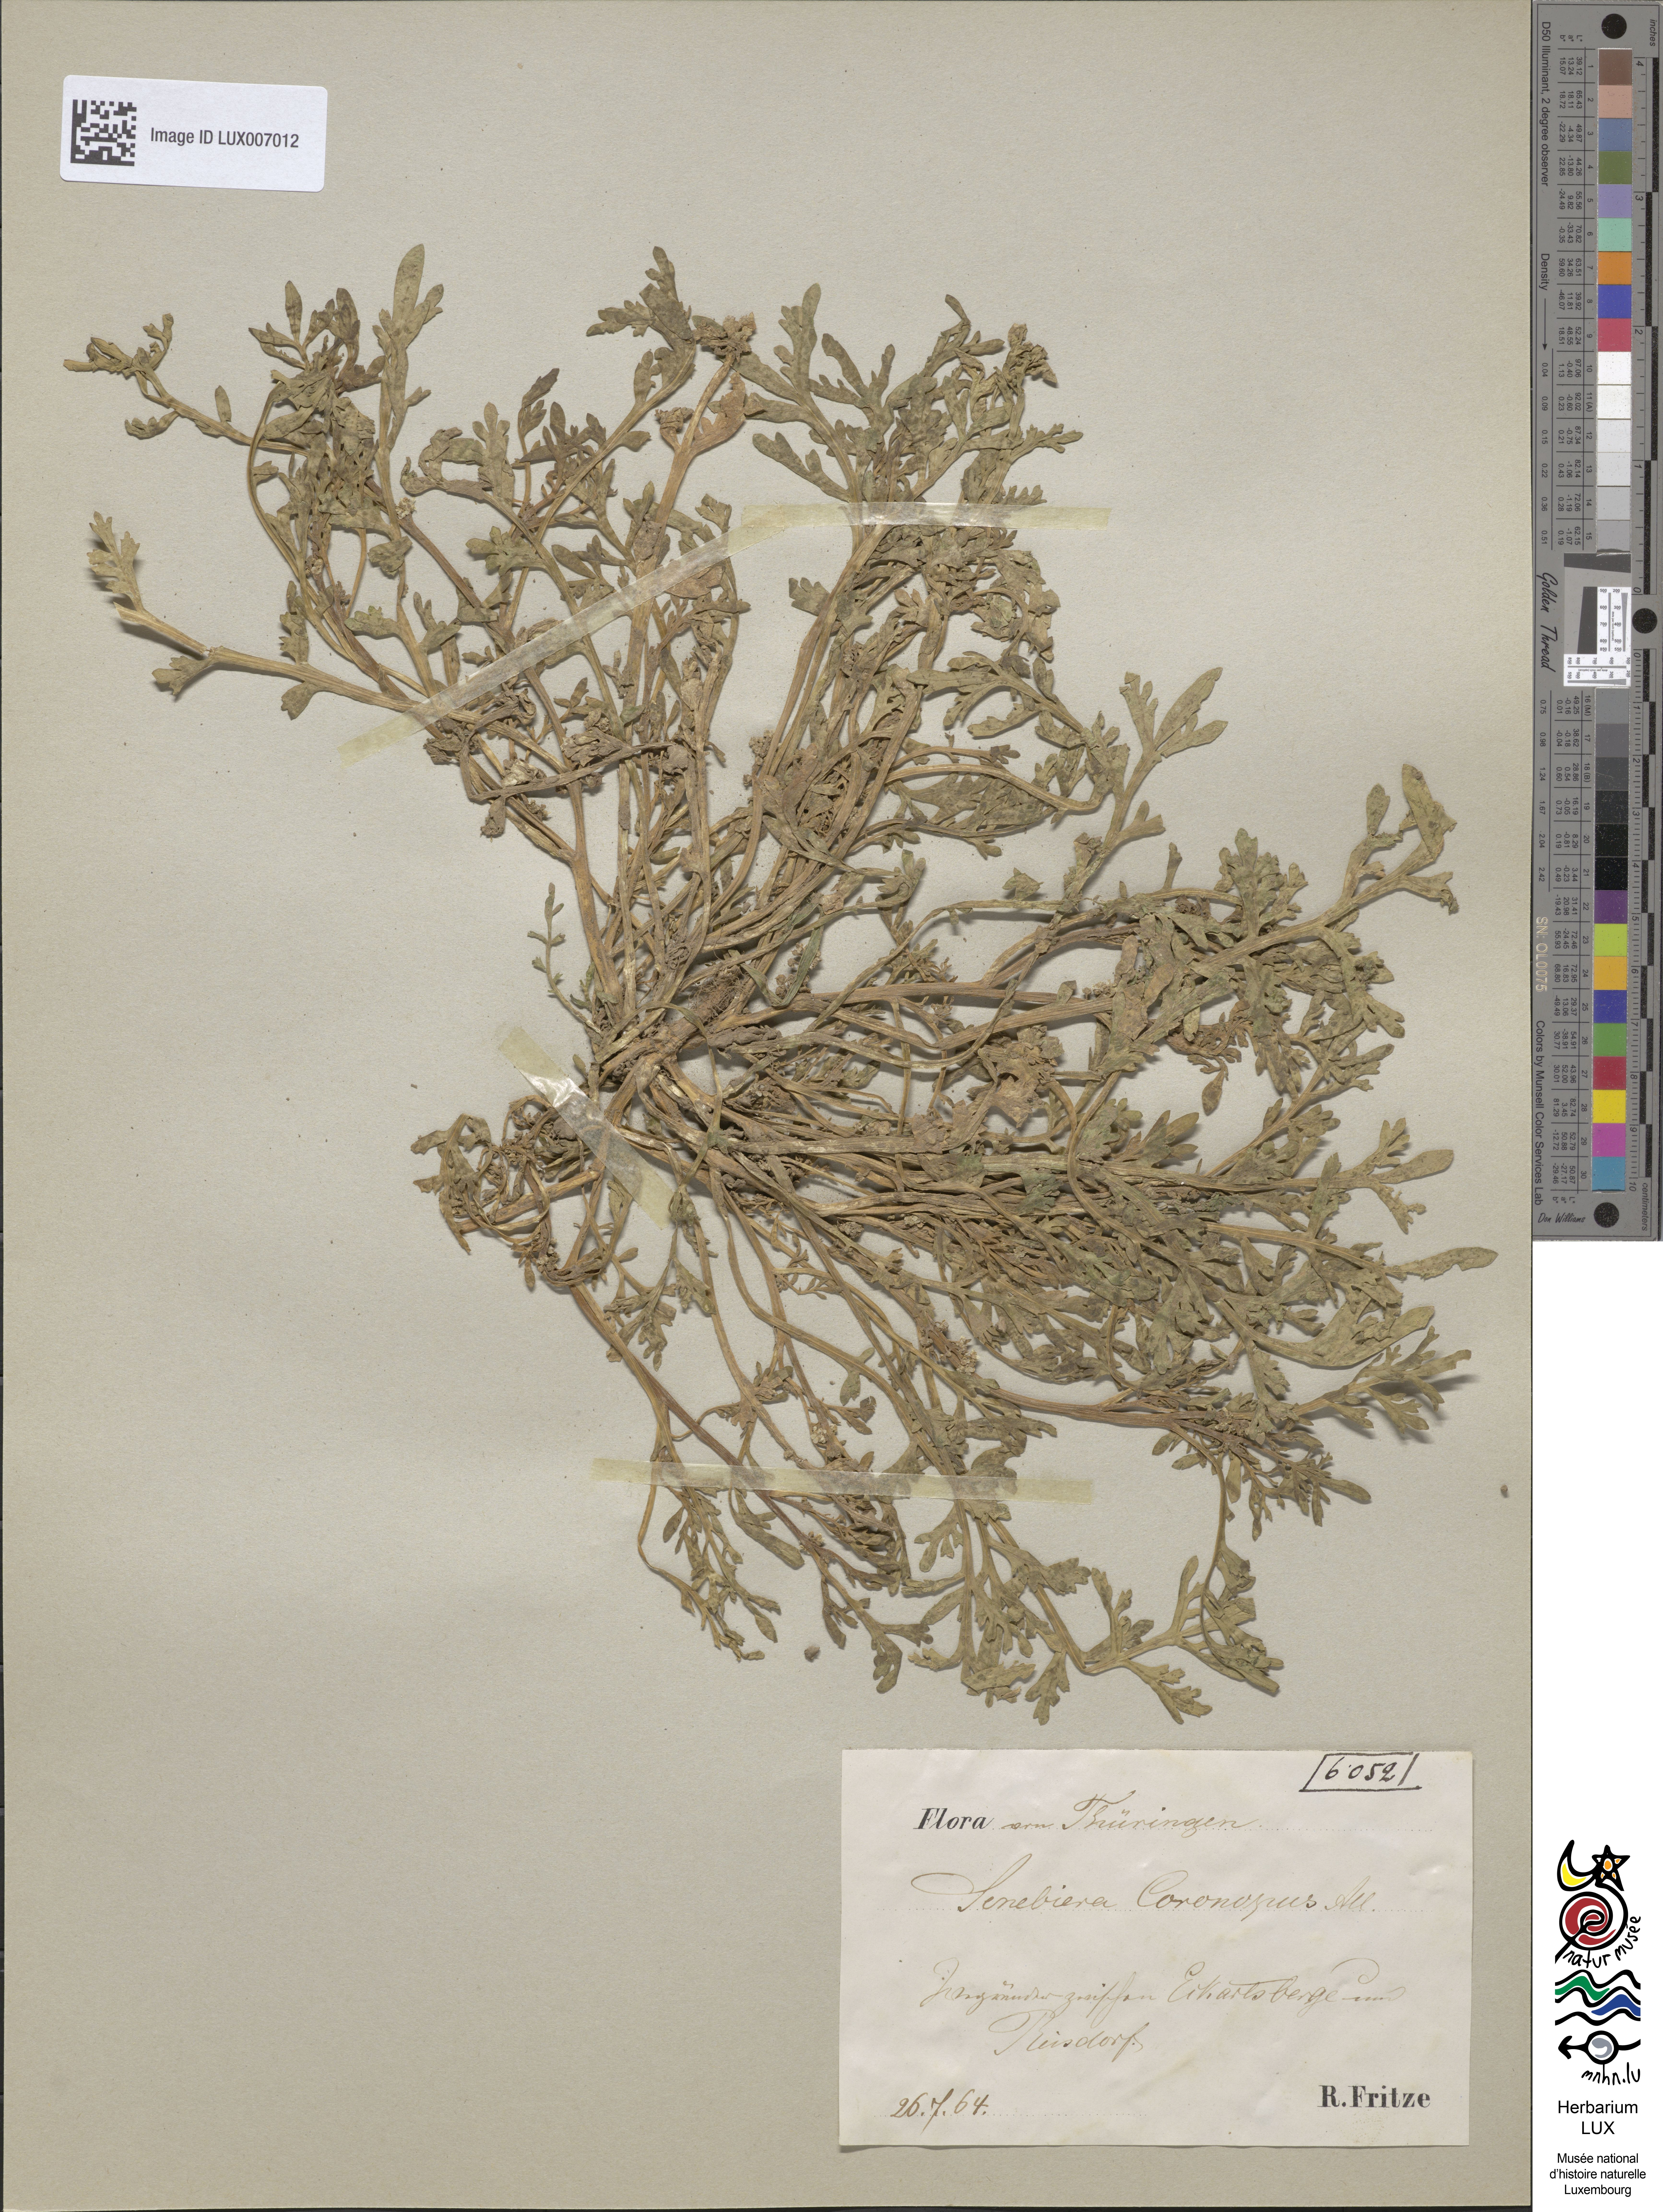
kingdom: Plantae
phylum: Tracheophyta
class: Magnoliopsida
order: Brassicales
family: Brassicaceae
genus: Lepidium
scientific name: Lepidium coronopus
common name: Greater swinecress
